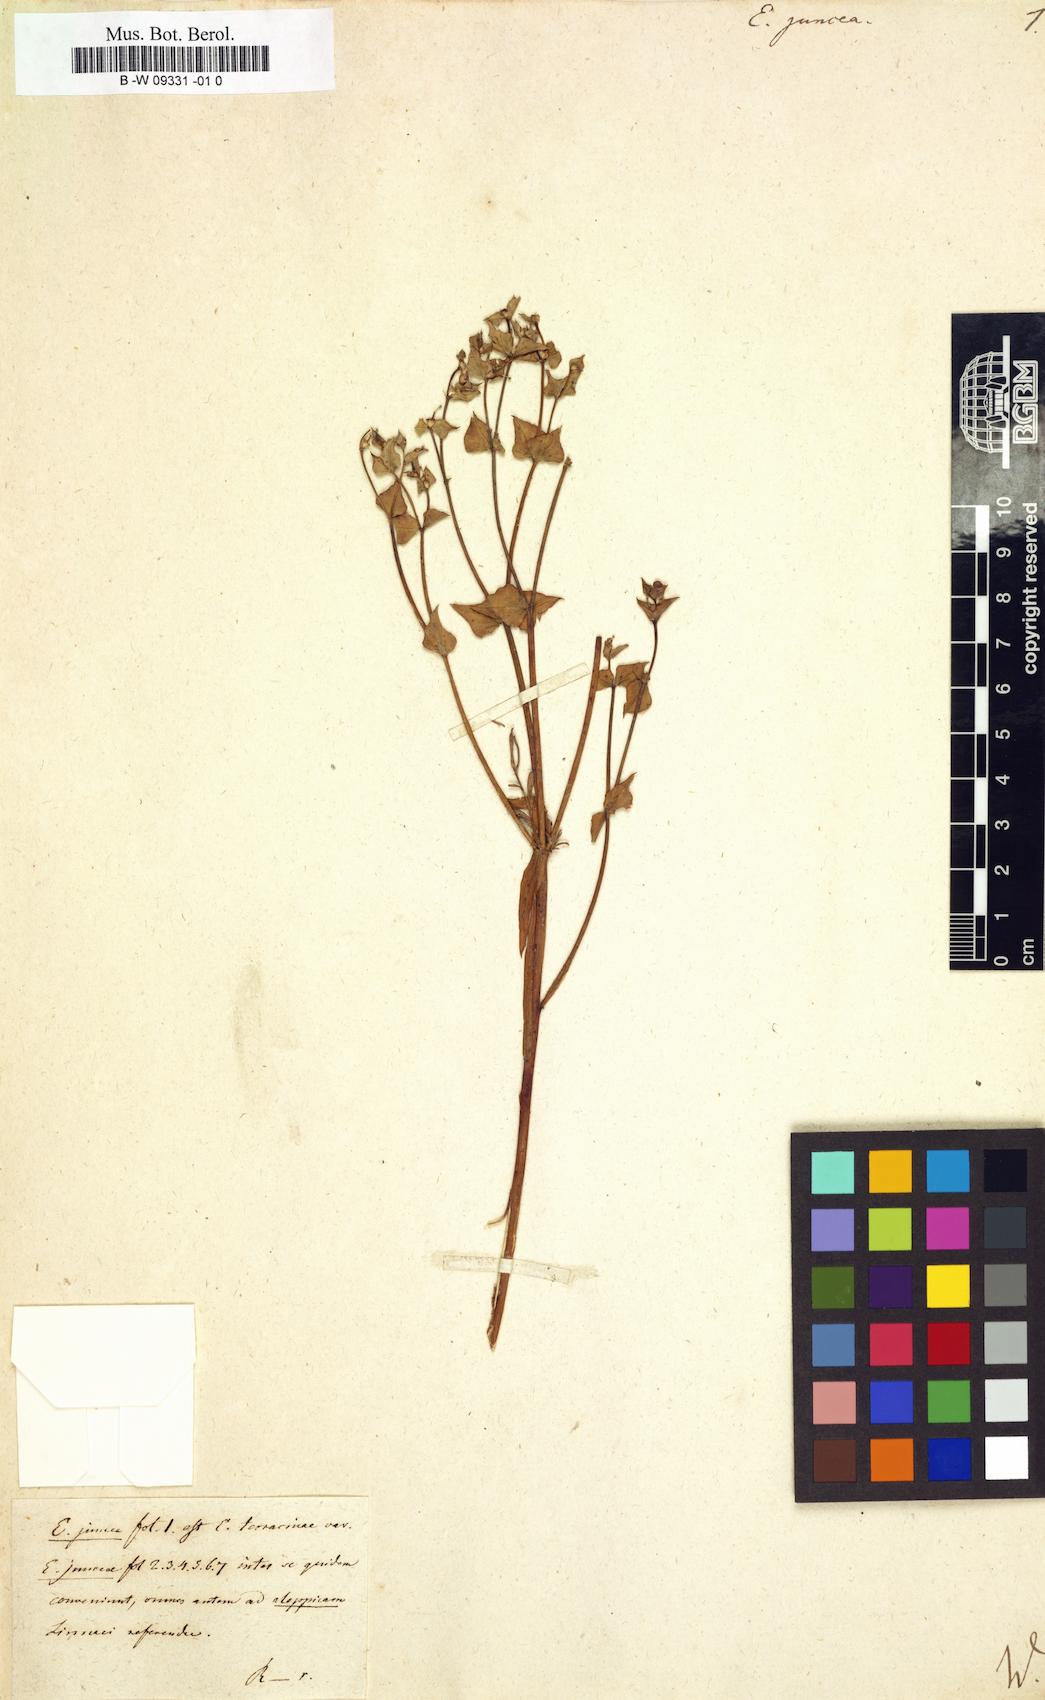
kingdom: Plantae
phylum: Tracheophyta
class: Magnoliopsida
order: Malpighiales
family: Euphorbiaceae
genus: Euphorbia
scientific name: Euphorbia aleppica
